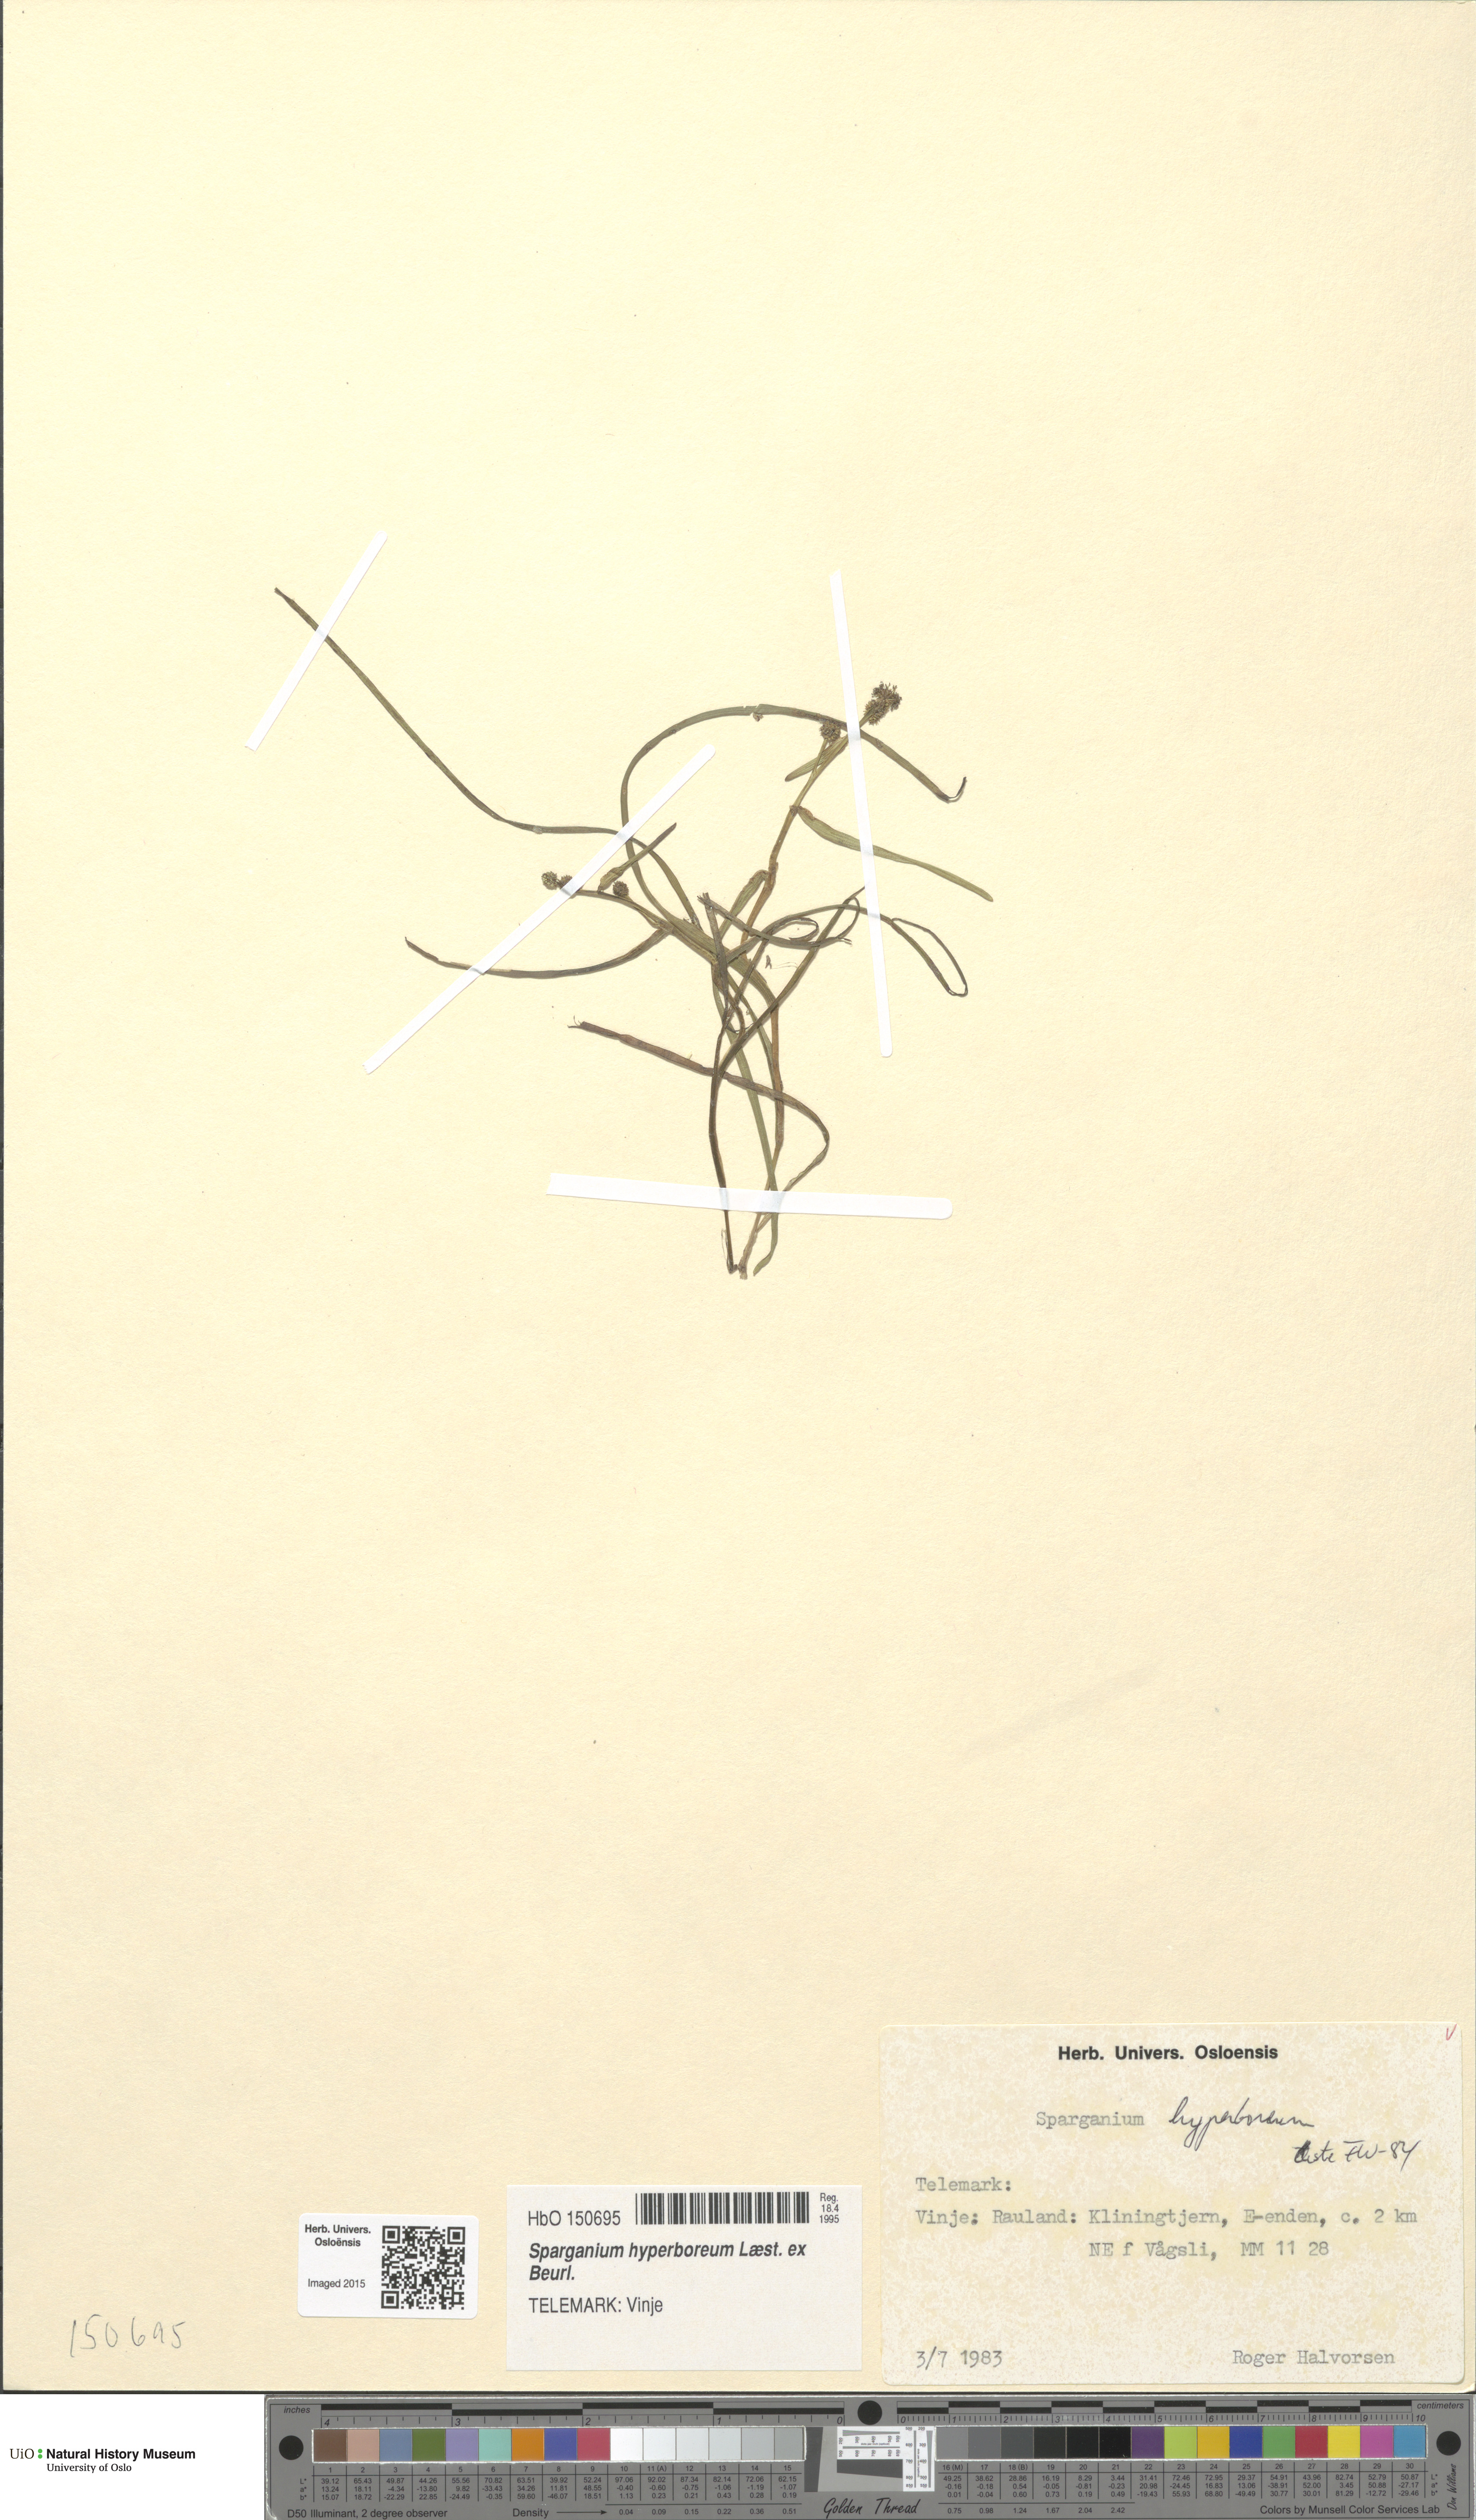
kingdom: Plantae
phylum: Tracheophyta
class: Liliopsida
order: Poales
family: Typhaceae
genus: Sparganium
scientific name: Sparganium hyperboreum
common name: Arctic burreed
